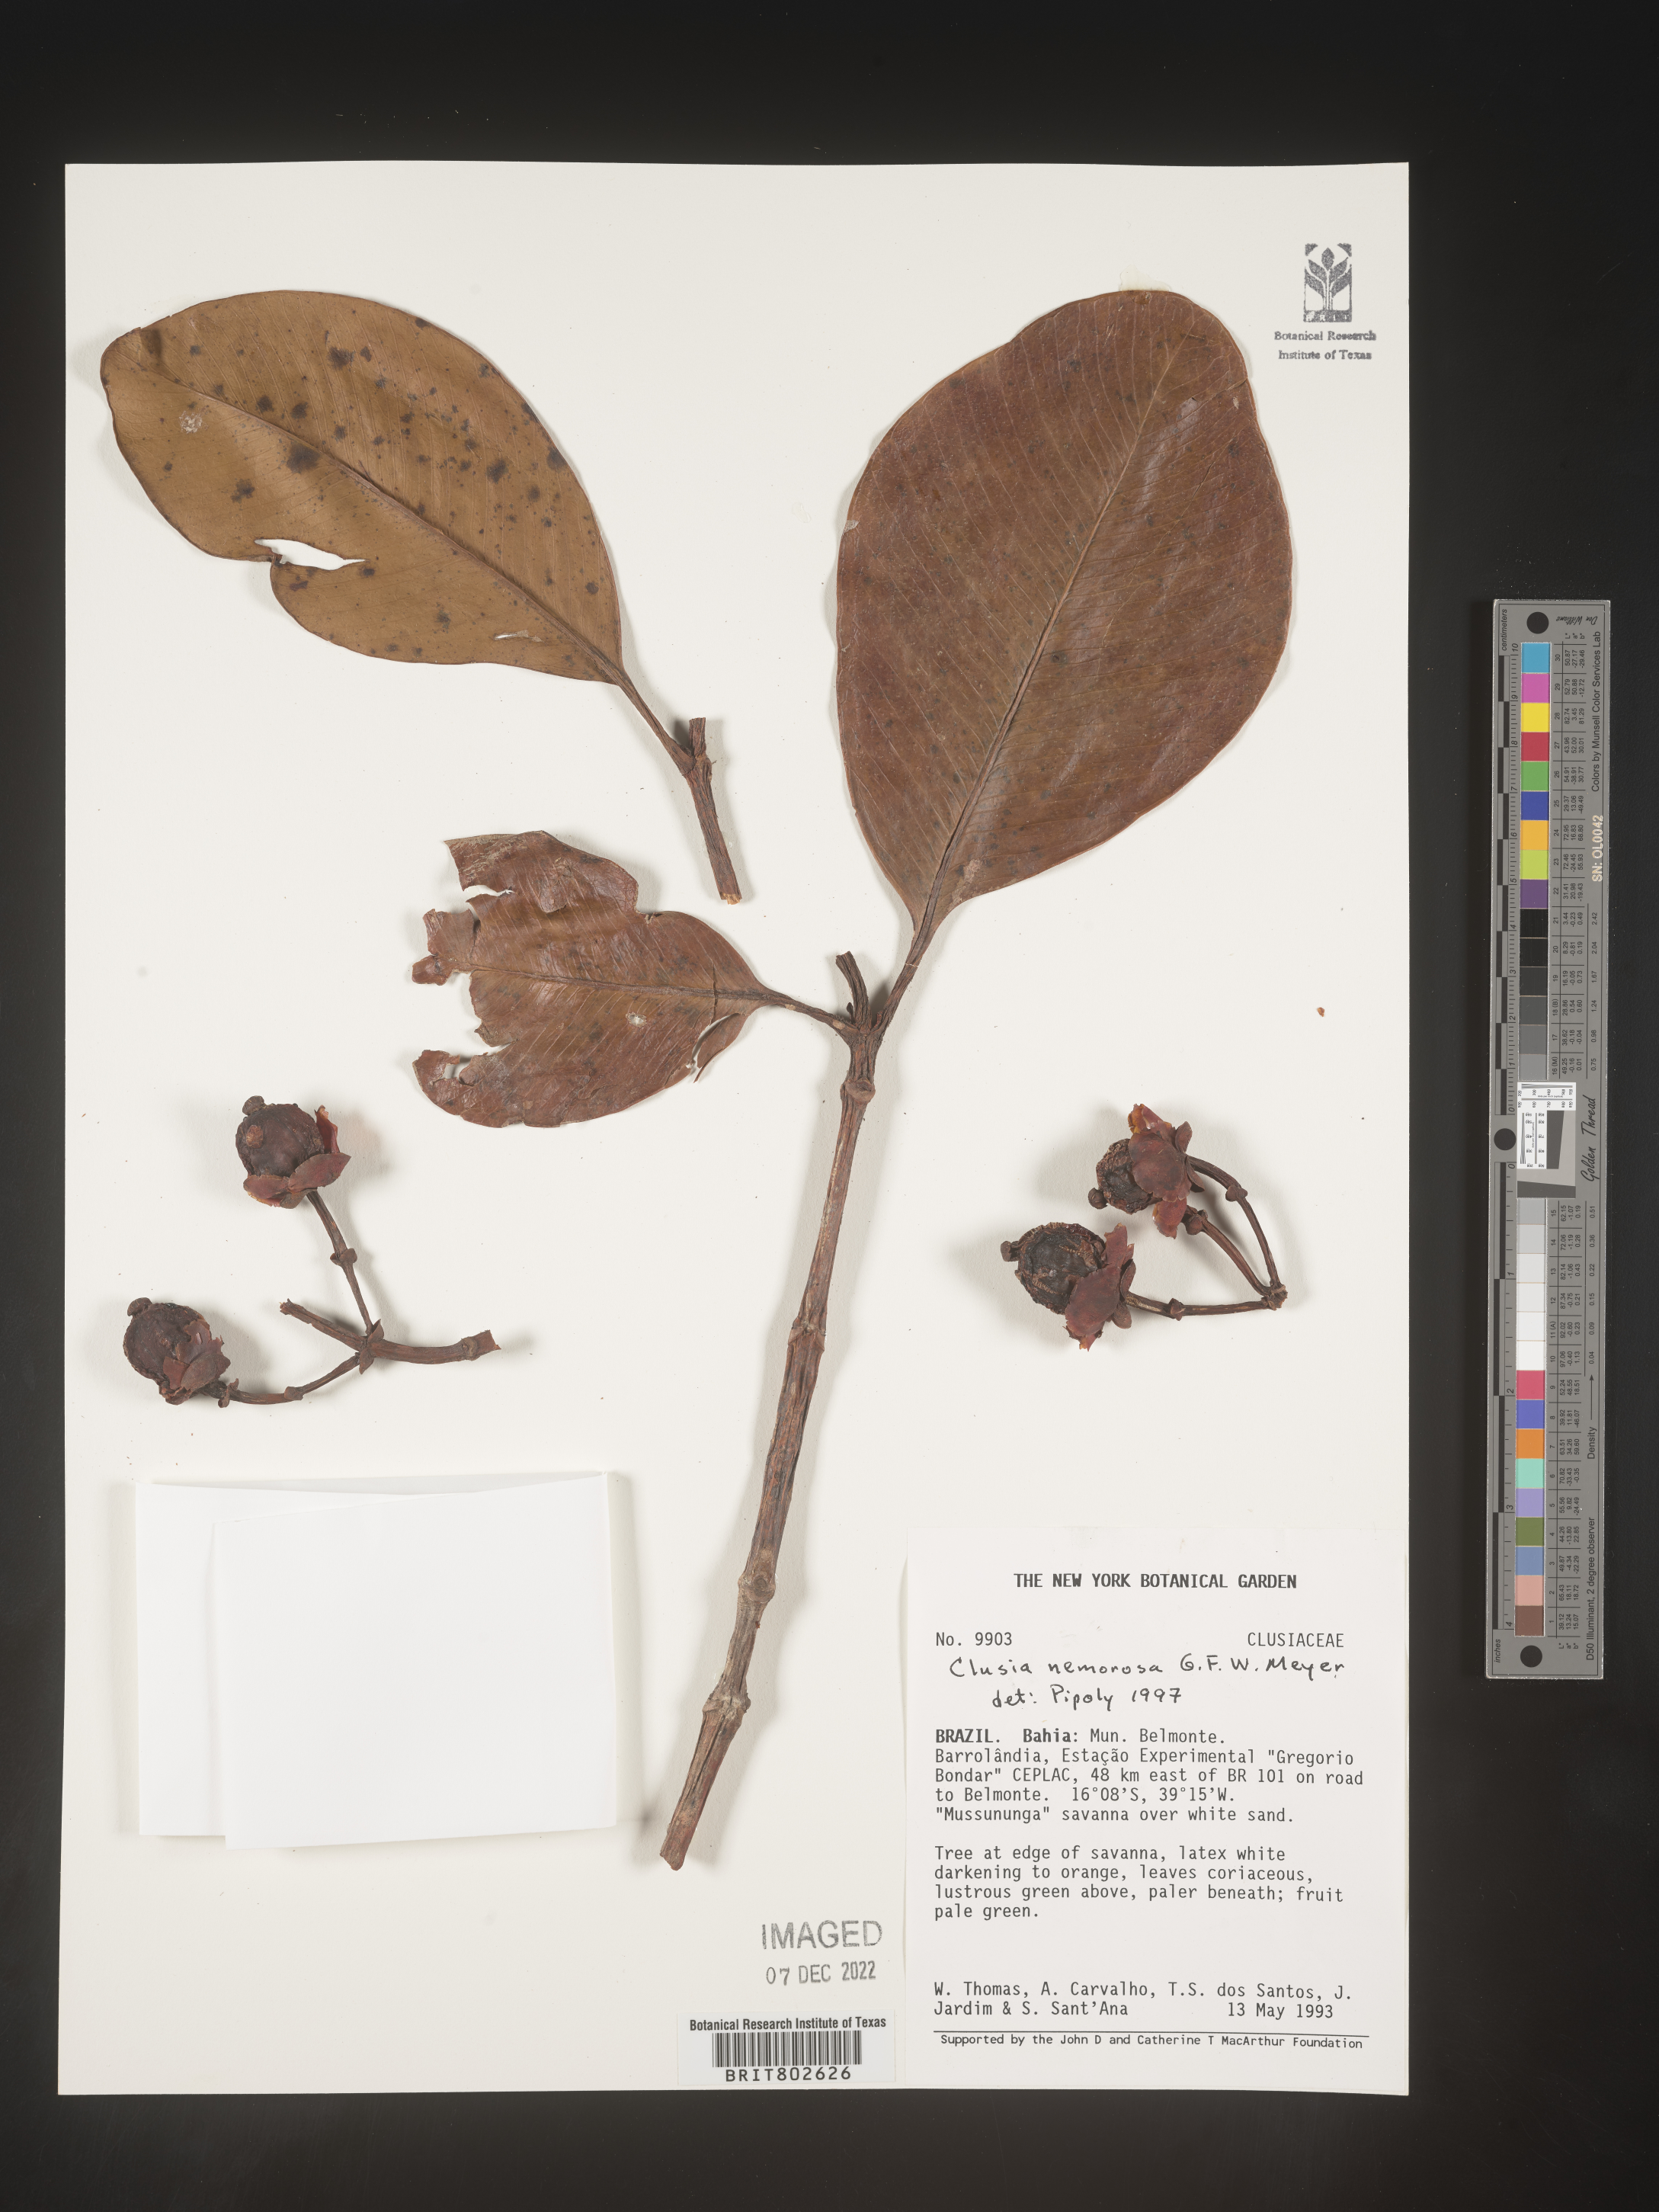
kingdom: Plantae
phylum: Tracheophyta
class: Magnoliopsida
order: Malpighiales
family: Clusiaceae
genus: Clusia
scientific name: Clusia nemorosa
